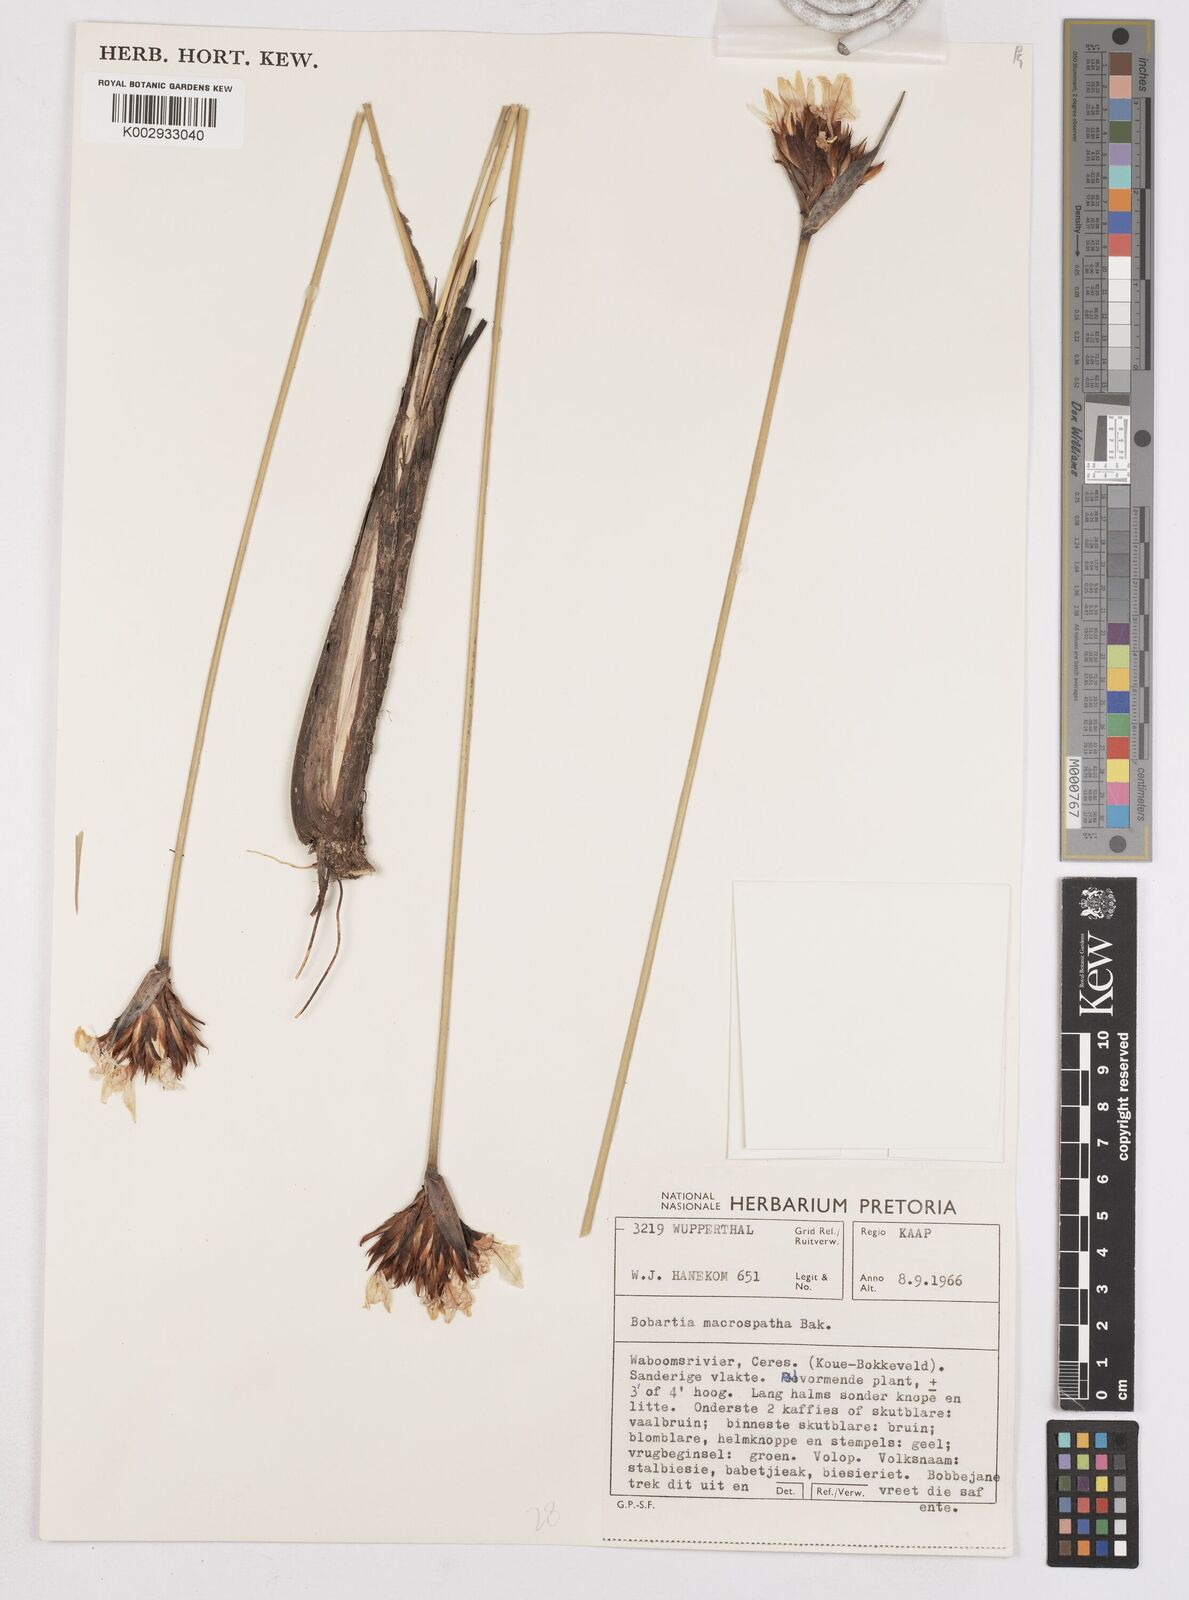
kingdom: Plantae
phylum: Tracheophyta
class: Liliopsida
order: Asparagales
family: Iridaceae
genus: Bobartia
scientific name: Bobartia macrospatha
